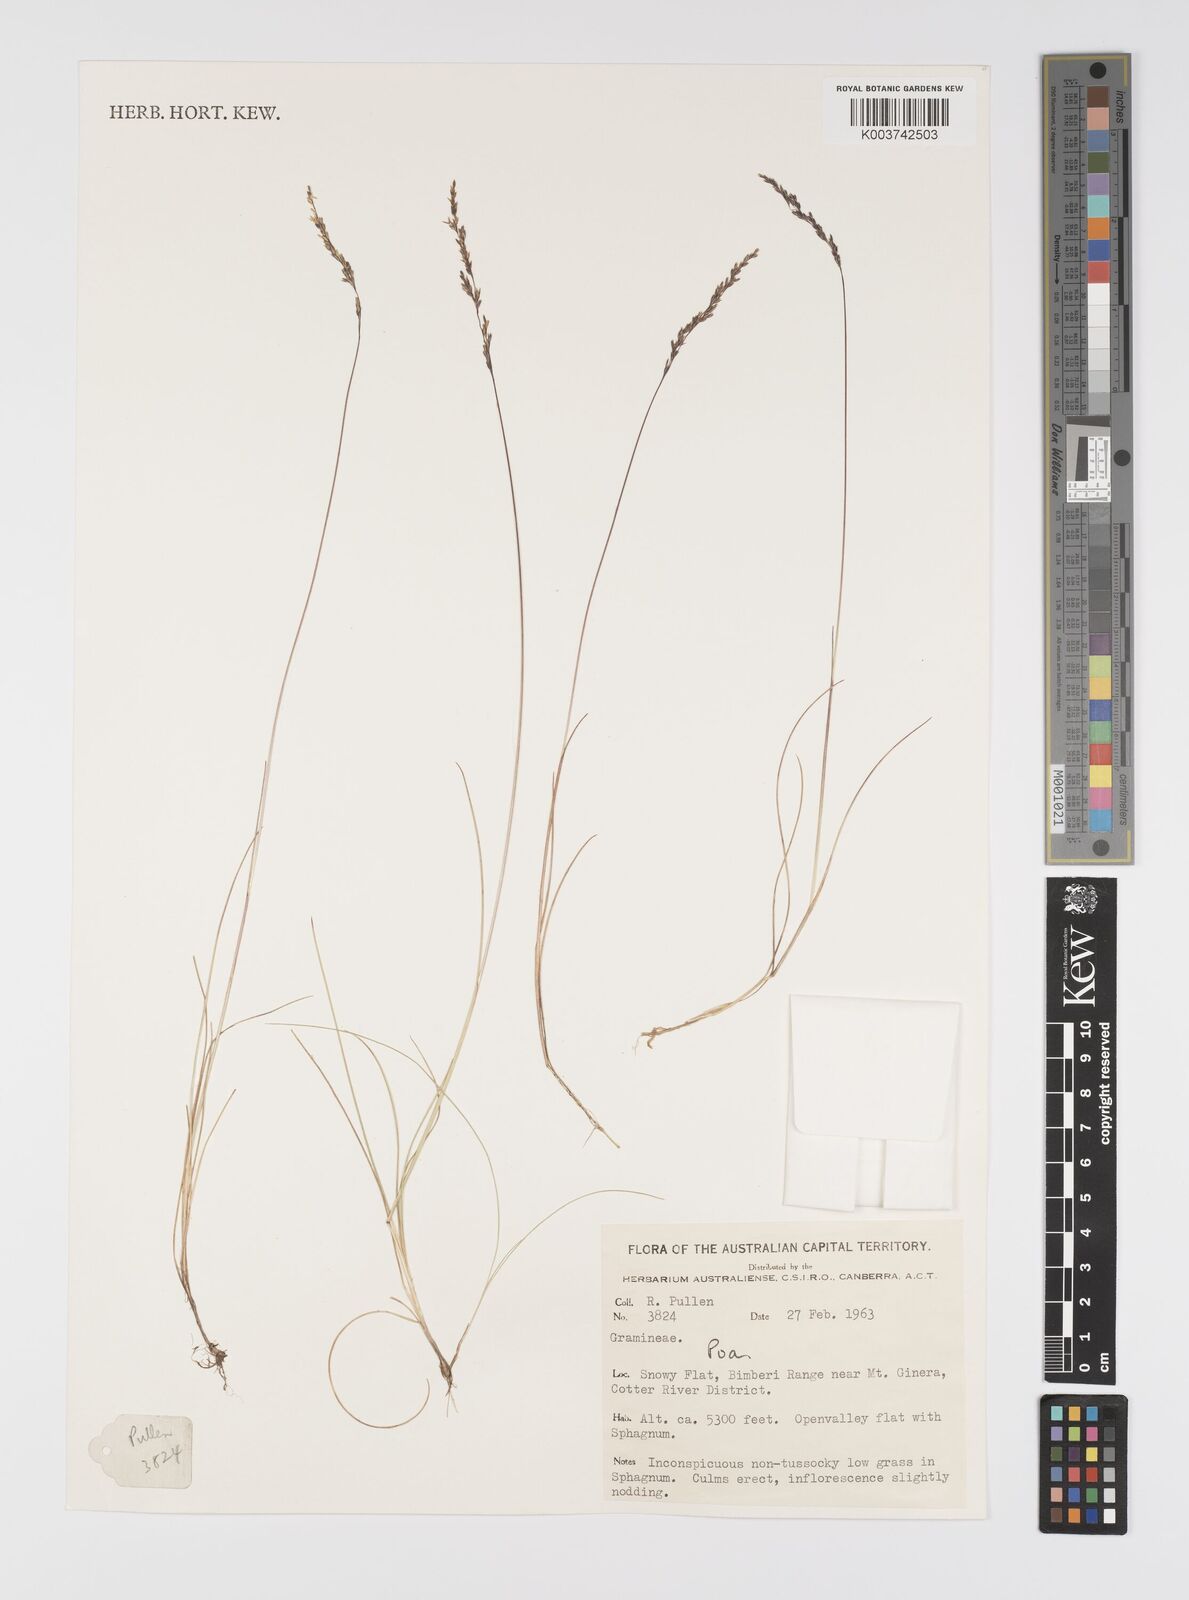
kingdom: Plantae
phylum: Tracheophyta
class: Liliopsida
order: Poales
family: Poaceae
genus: Poa
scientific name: Poa
